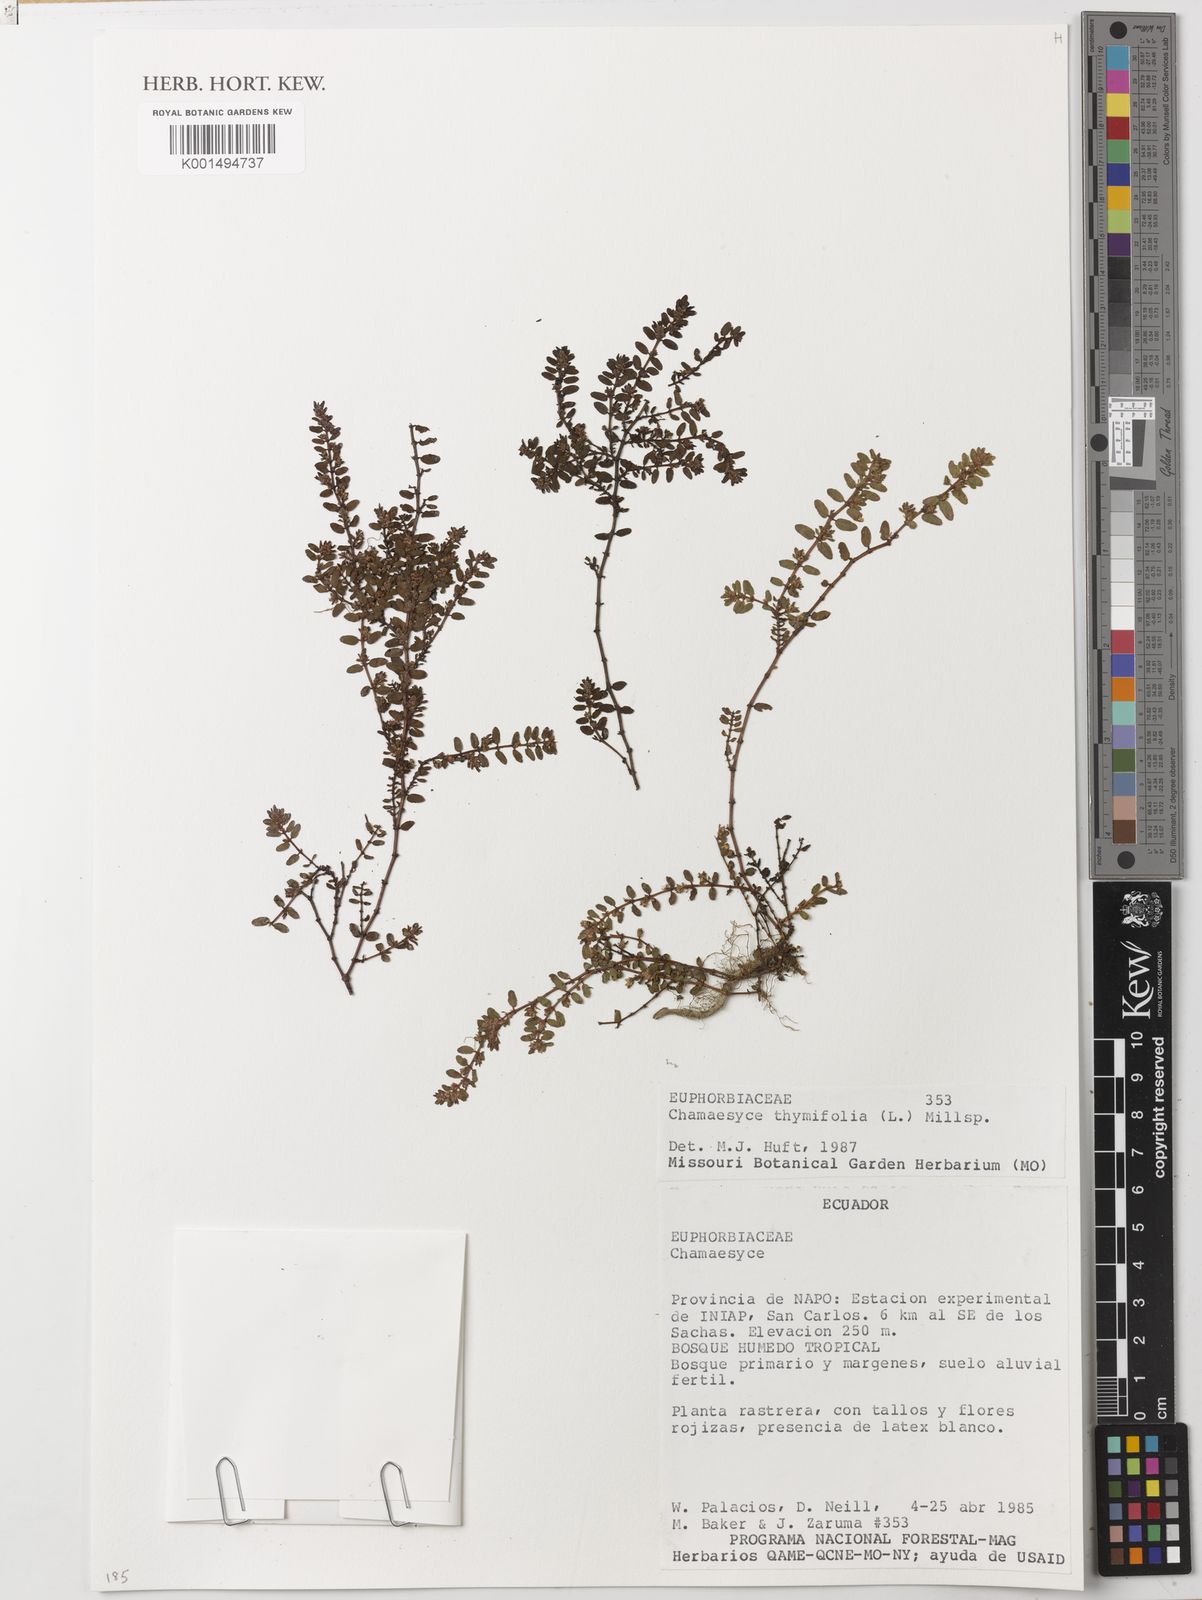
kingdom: Plantae
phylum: Tracheophyta
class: Magnoliopsida
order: Malpighiales
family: Euphorbiaceae
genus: Euphorbia
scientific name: Euphorbia thymifolia
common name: Gulf sandmat
